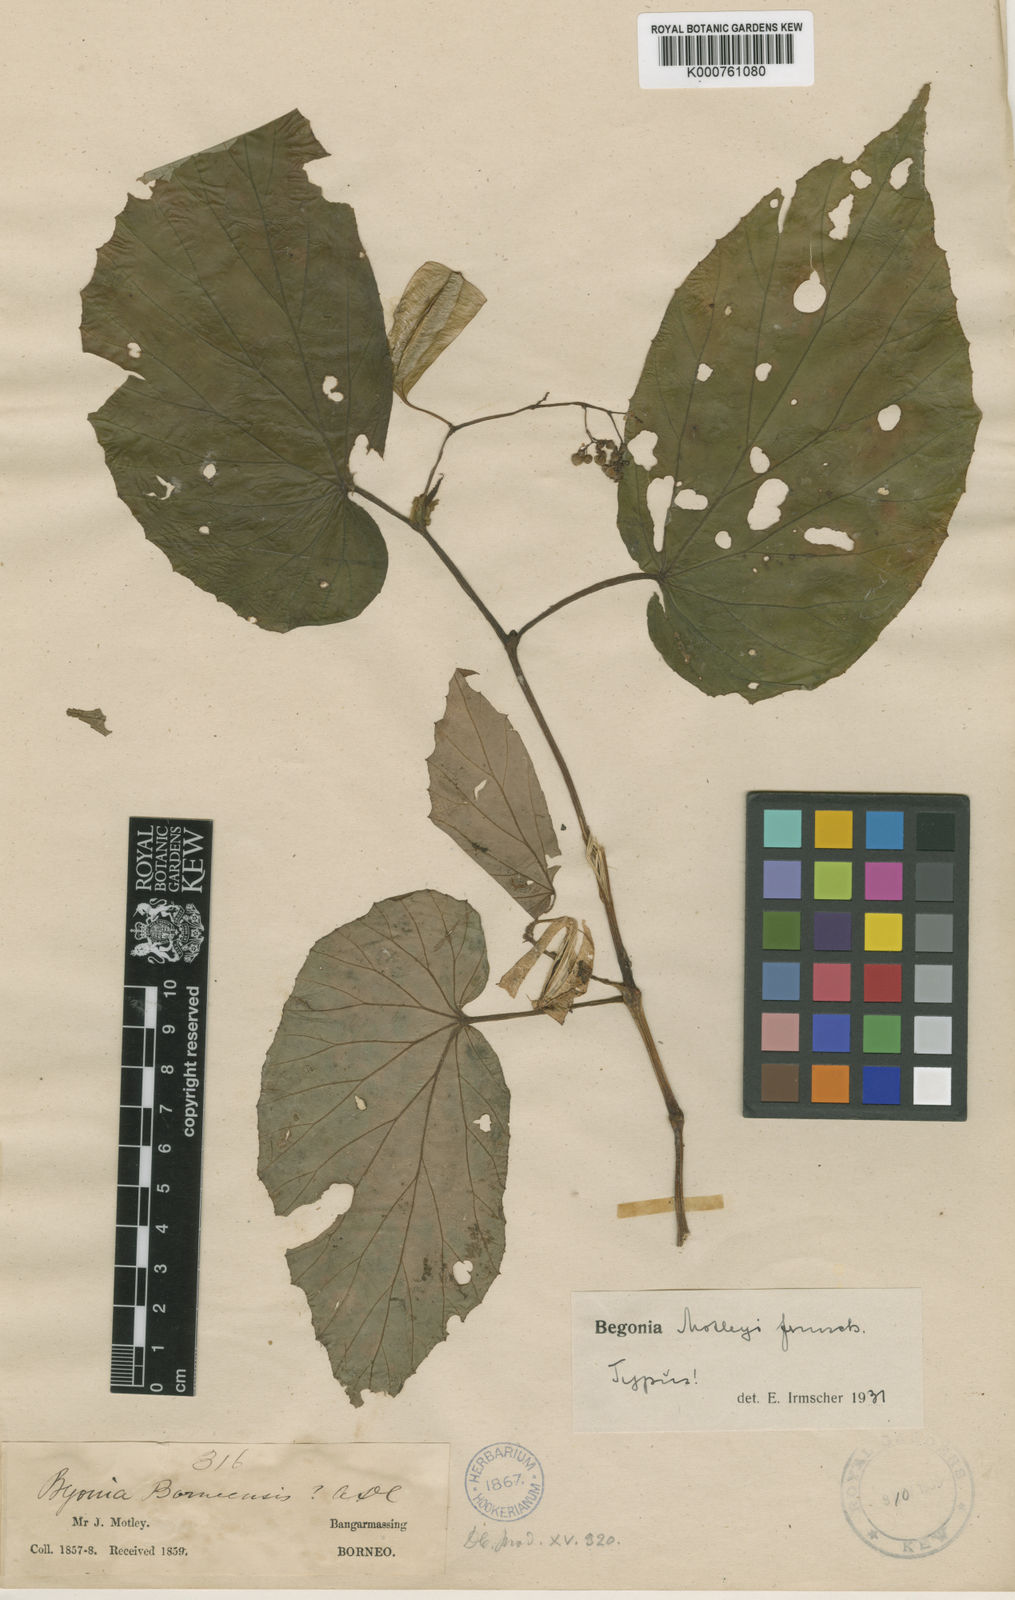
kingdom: Plantae
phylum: Tracheophyta
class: Magnoliopsida
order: Cucurbitales
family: Begoniaceae
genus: Begonia
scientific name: Begonia
